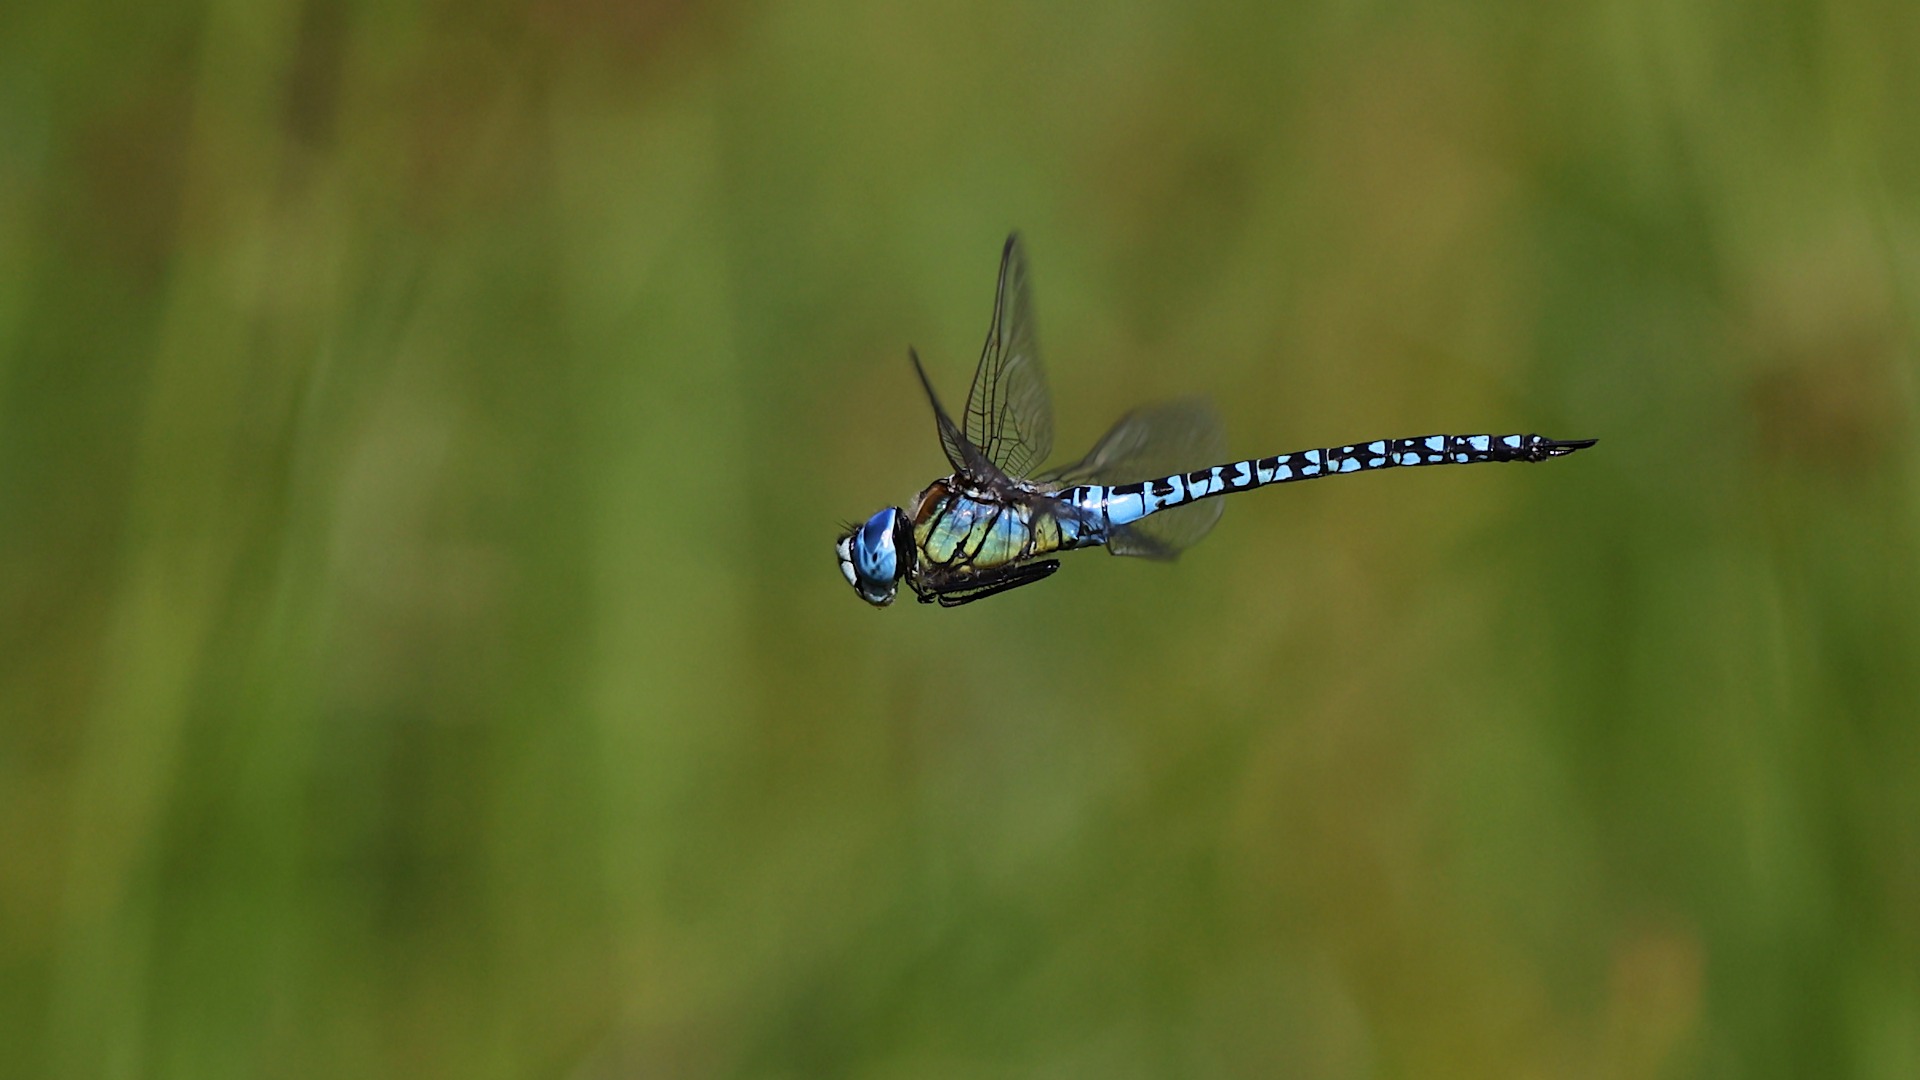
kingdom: Animalia
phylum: Arthropoda
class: Insecta
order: Odonata
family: Aeshnidae
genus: Aeshna
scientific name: Aeshna affinis
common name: Sydlig mosaikguldsmed
